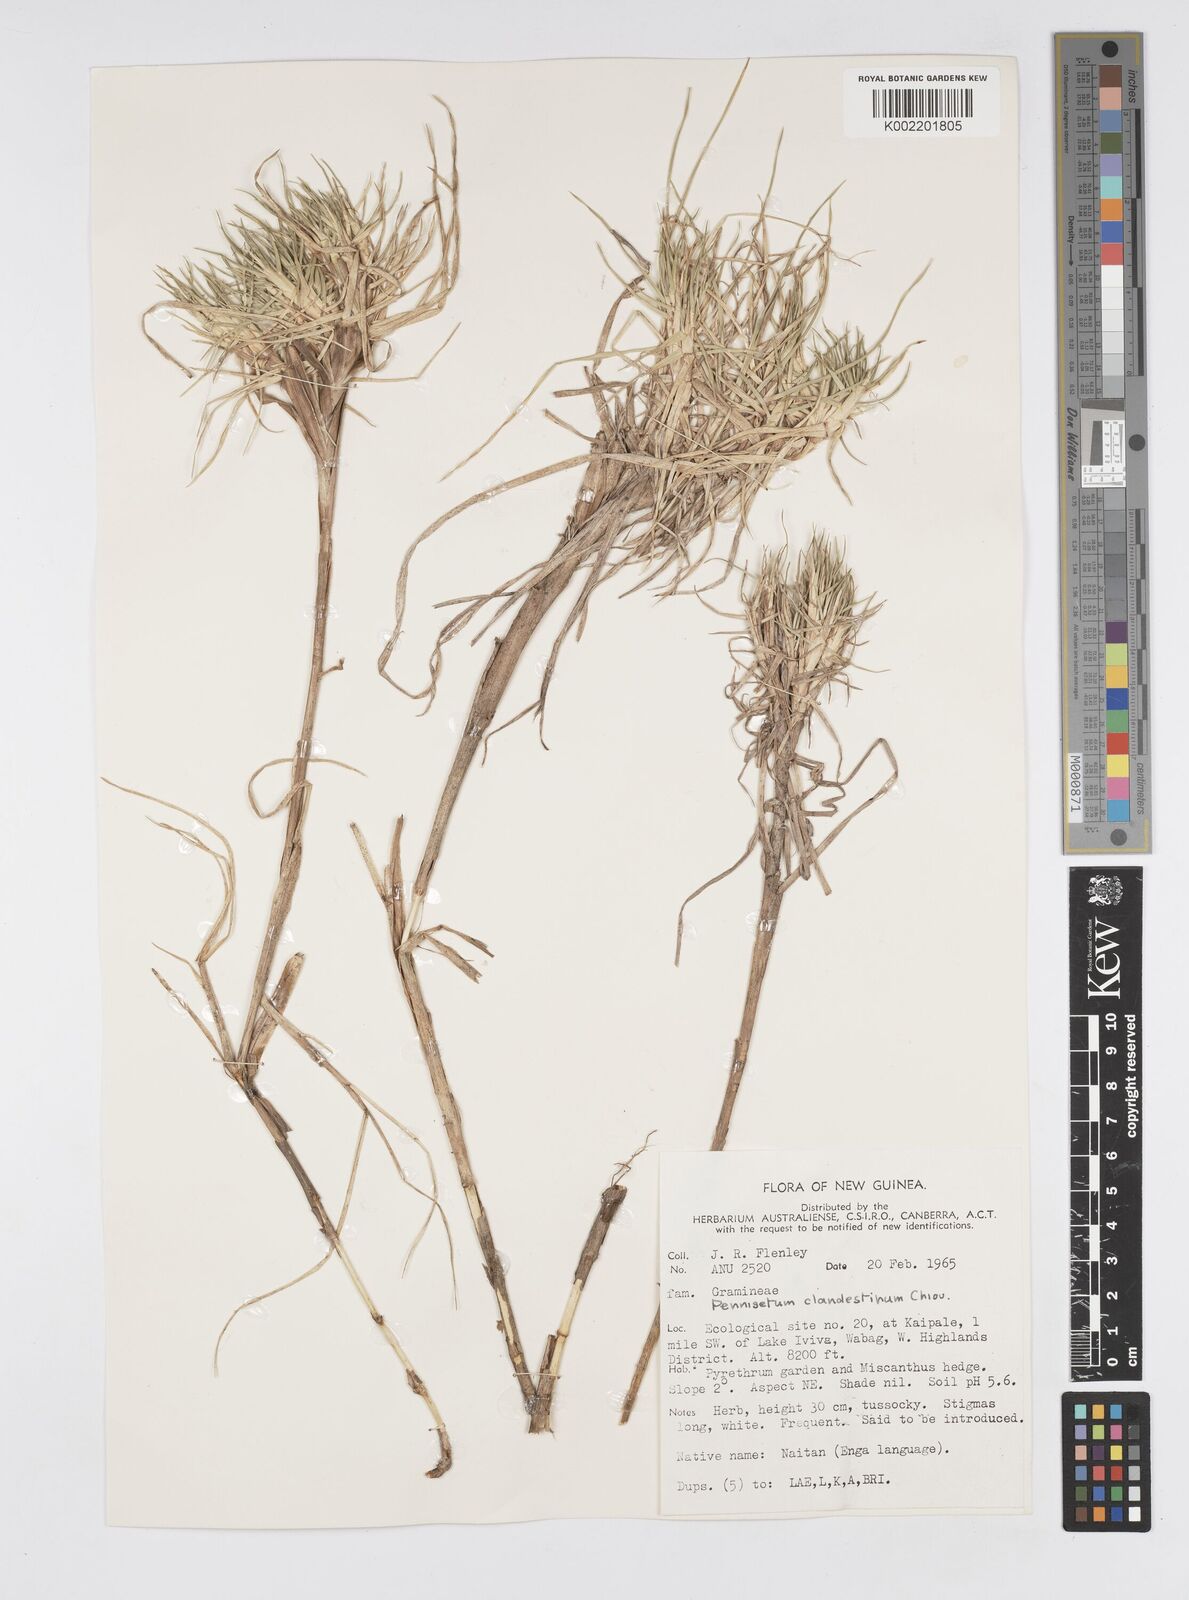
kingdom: Plantae
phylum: Tracheophyta
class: Liliopsida
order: Poales
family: Poaceae
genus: Cenchrus
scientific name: Cenchrus clandestinus
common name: Kikuyugrass
